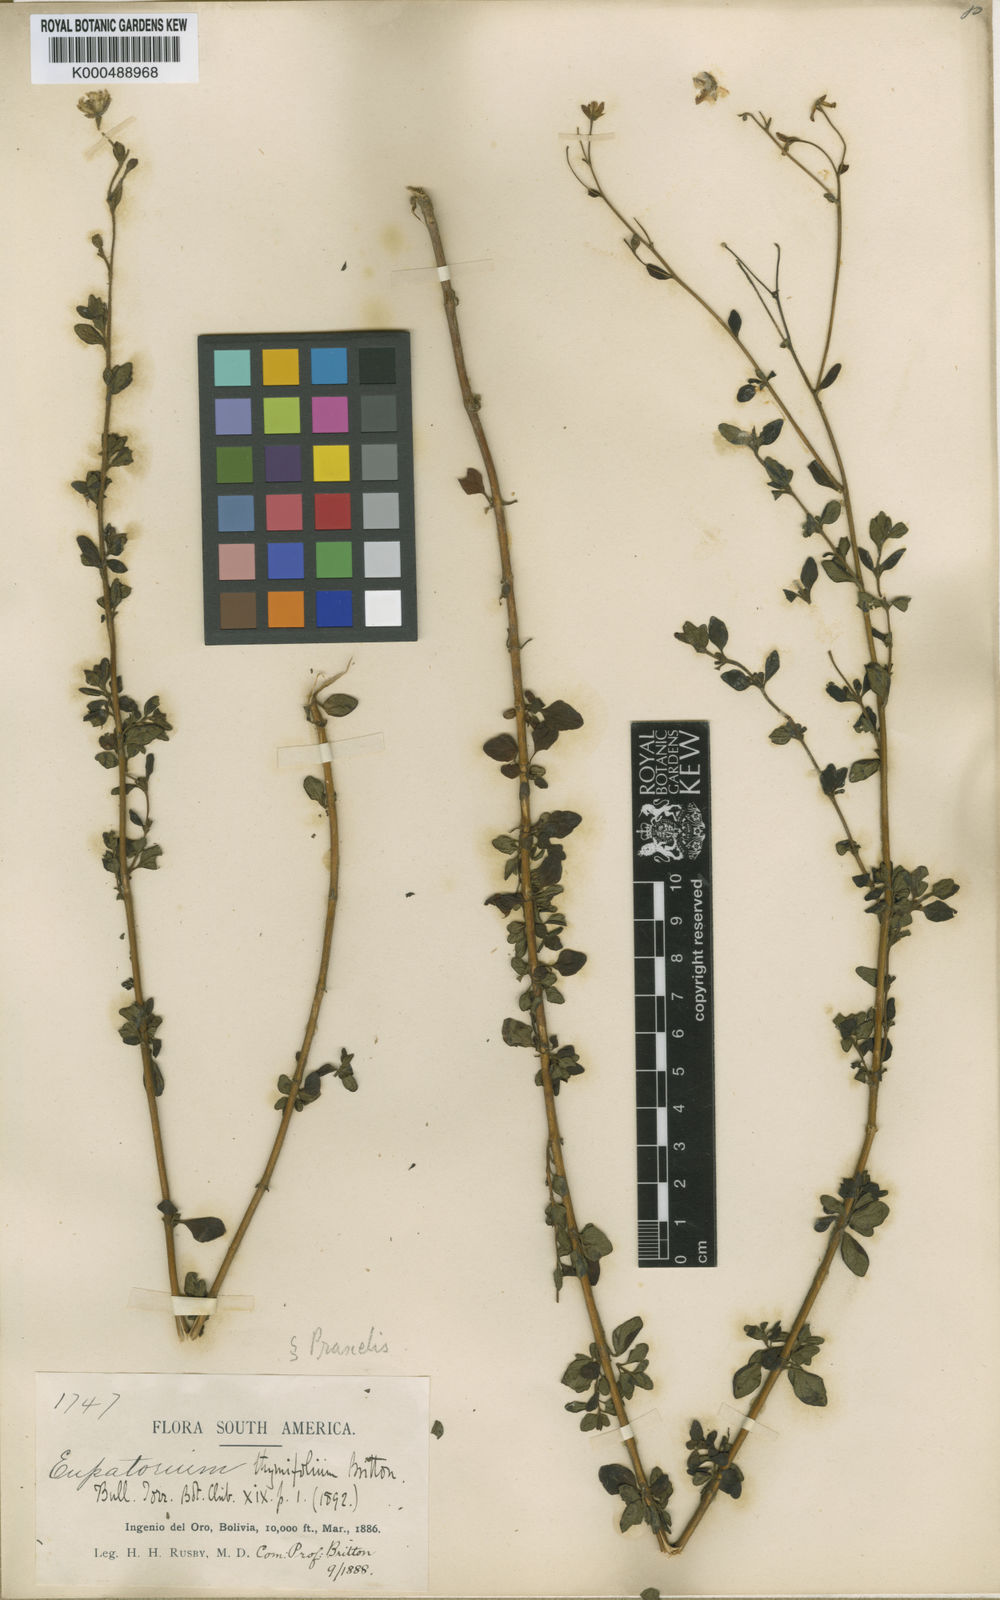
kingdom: Plantae
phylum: Tracheophyta
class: Magnoliopsida
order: Asterales
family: Asteraceae
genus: Neocuatrecasia
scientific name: Neocuatrecasia thymifolia
